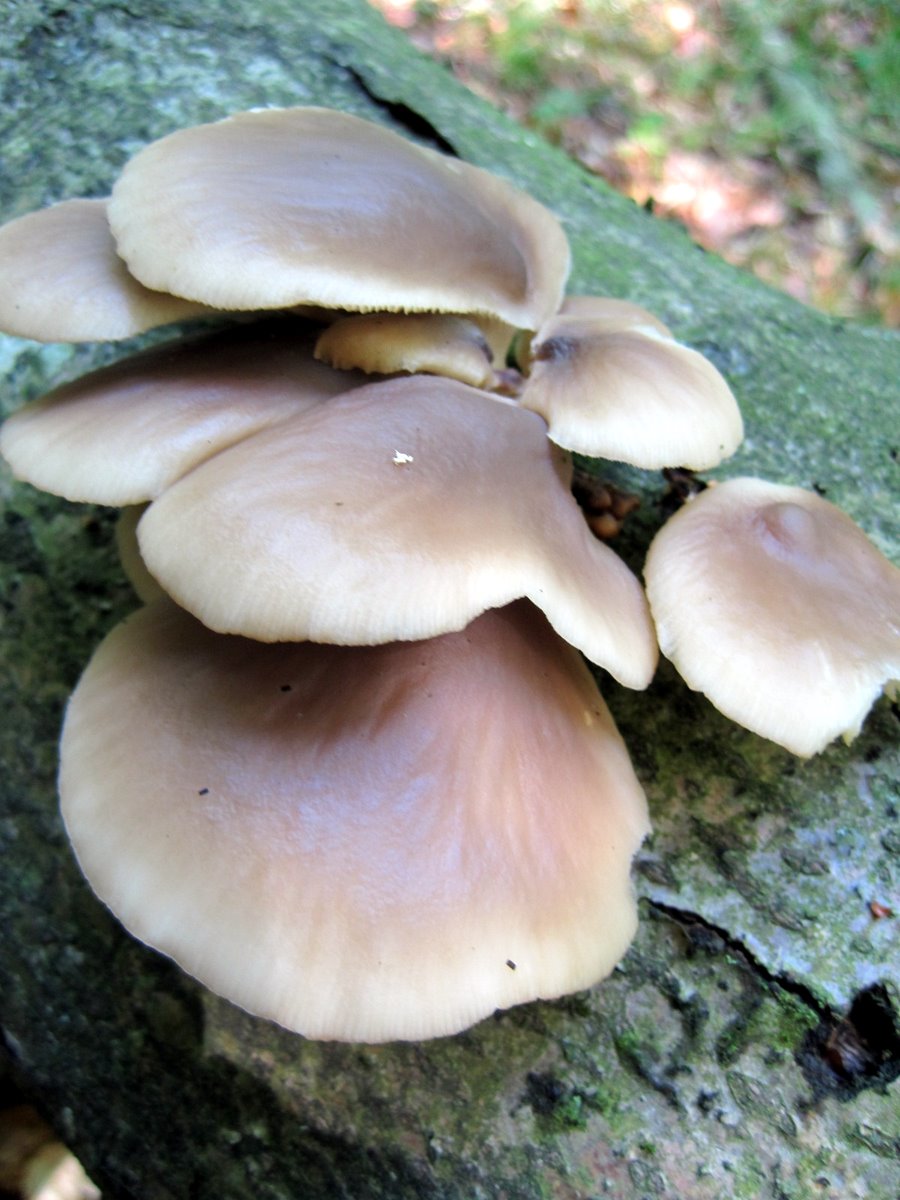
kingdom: Fungi
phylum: Basidiomycota
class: Agaricomycetes
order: Agaricales
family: Pleurotaceae
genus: Pleurotus
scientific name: Pleurotus pulmonarius
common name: sommer-østershat
